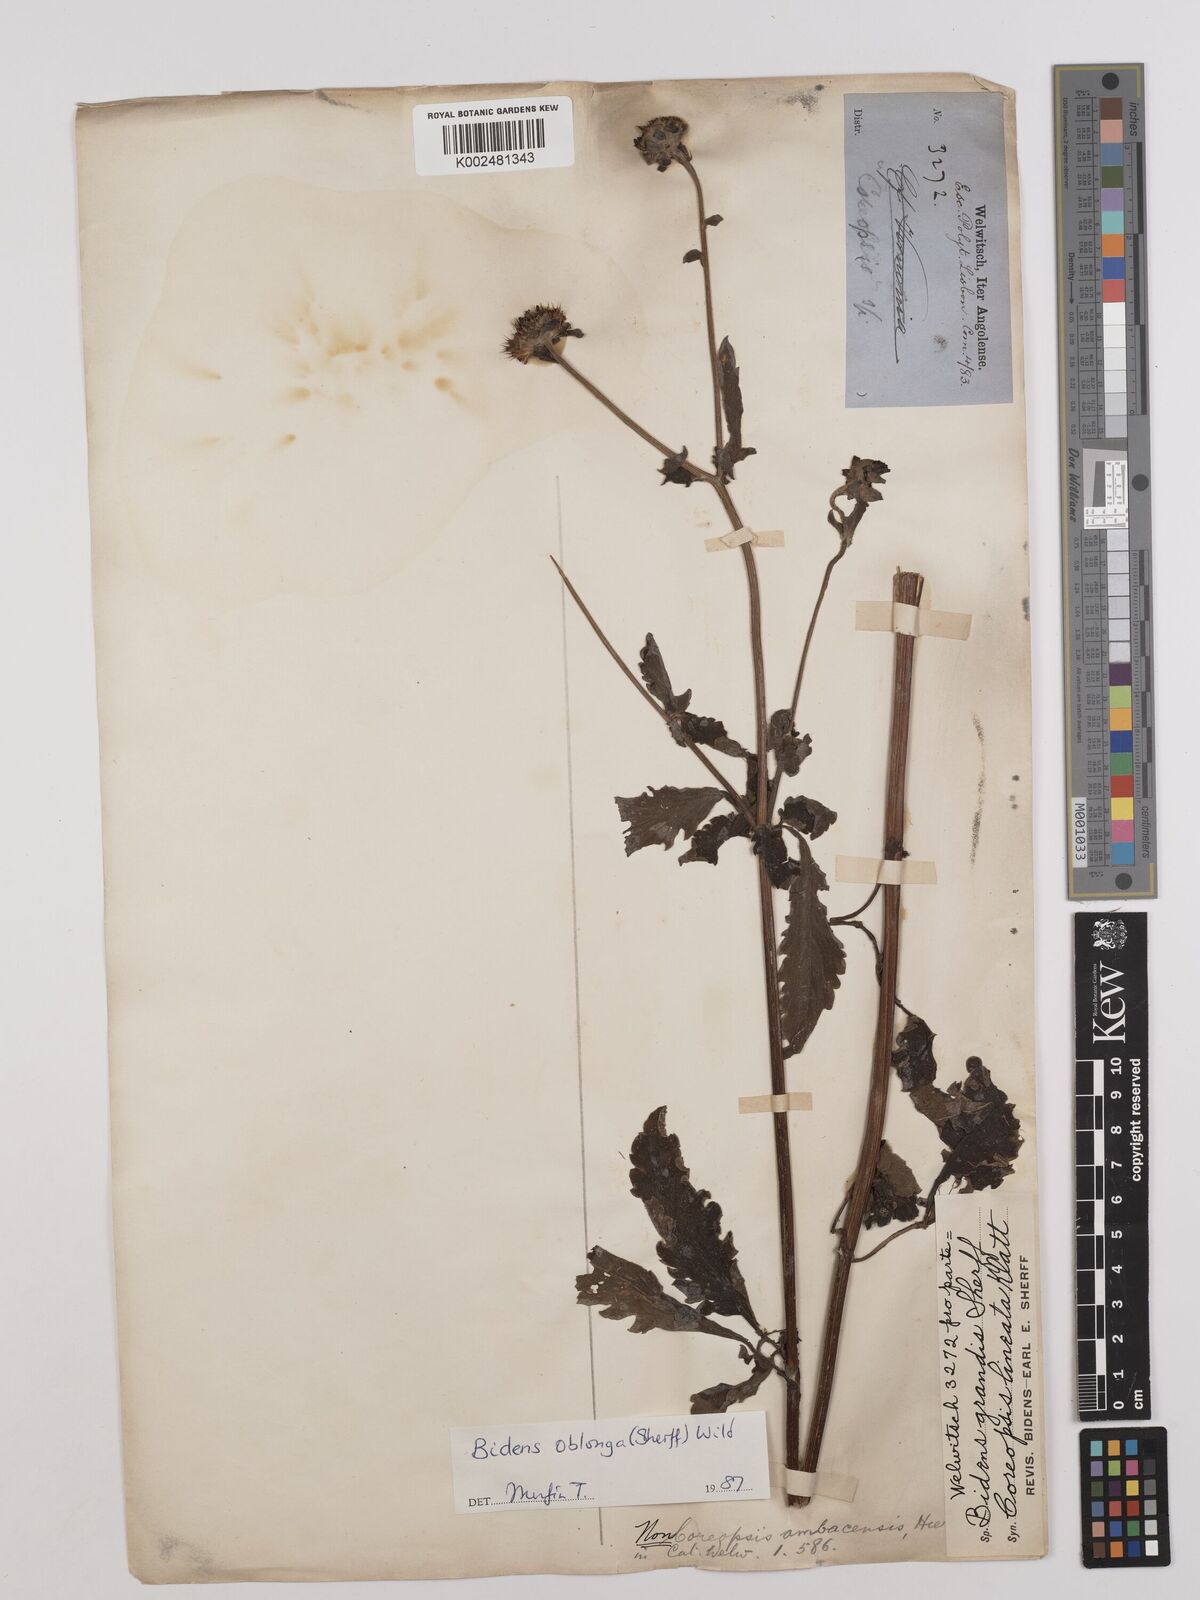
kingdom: Plantae
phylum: Tracheophyta
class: Magnoliopsida
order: Asterales
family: Asteraceae
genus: Bidens
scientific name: Bidens oblonga
